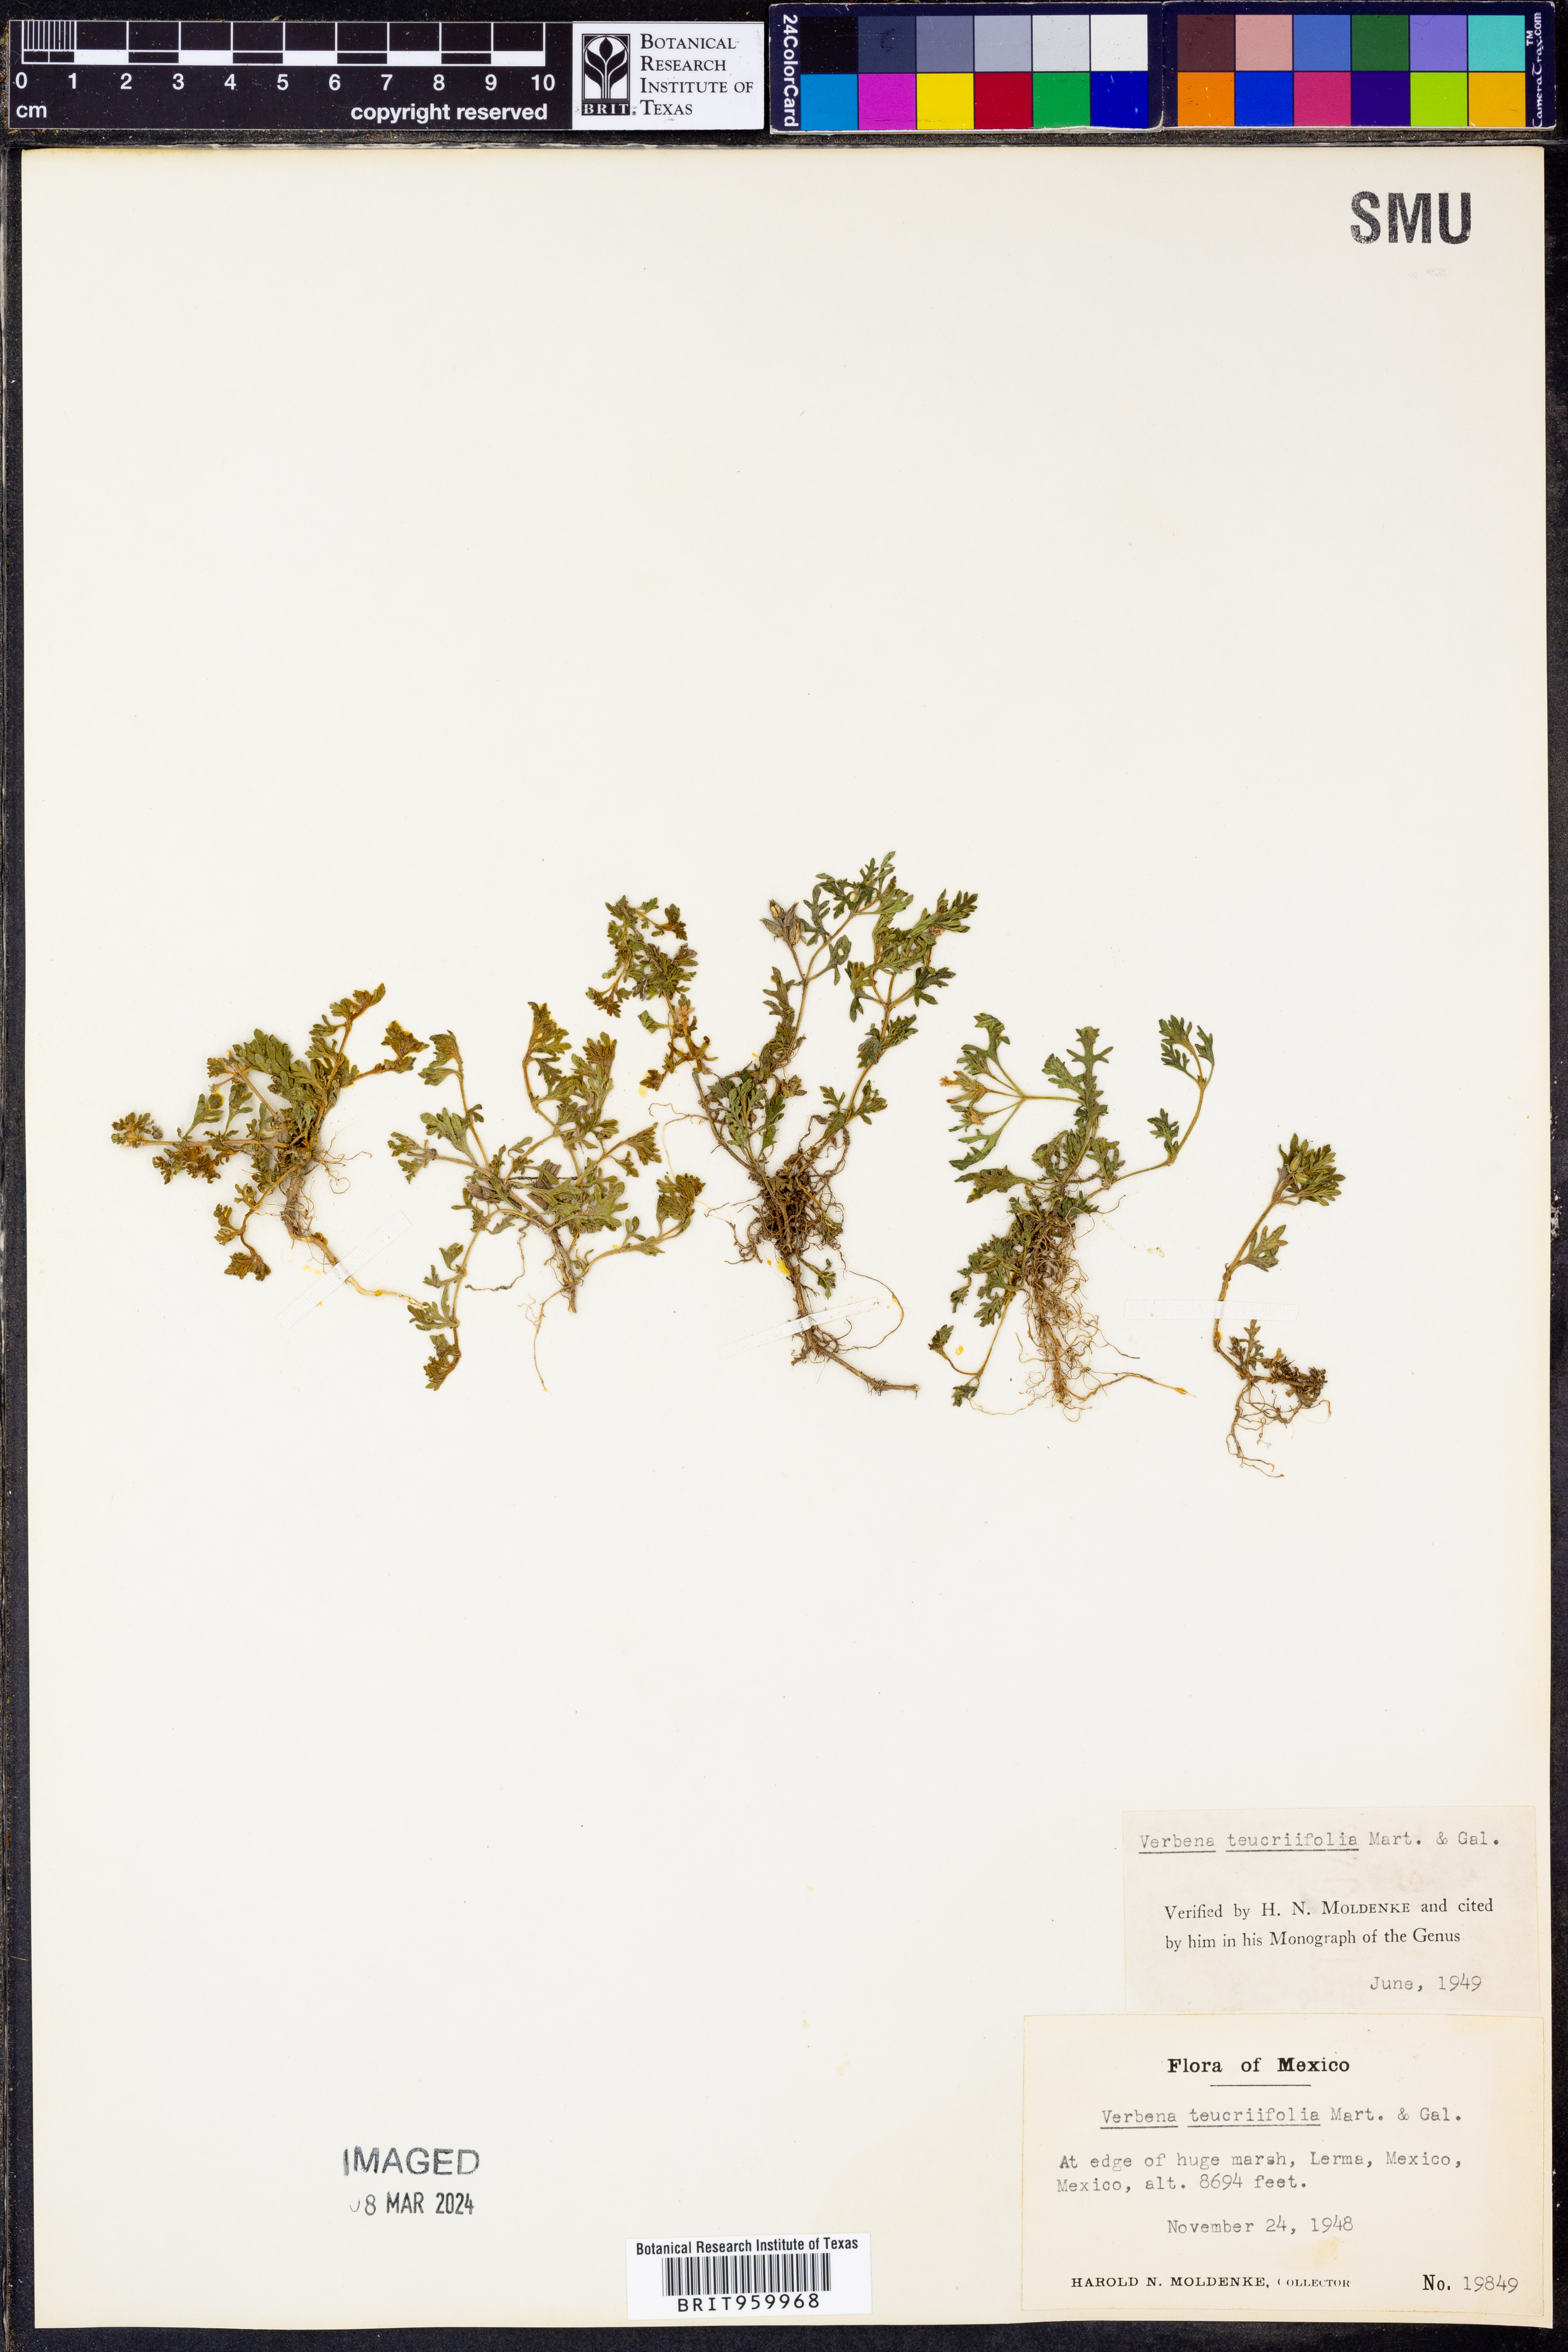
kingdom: Plantae
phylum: Tracheophyta
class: Magnoliopsida
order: Lamiales
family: Verbenaceae
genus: Verbena
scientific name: Verbena teucriifolia
